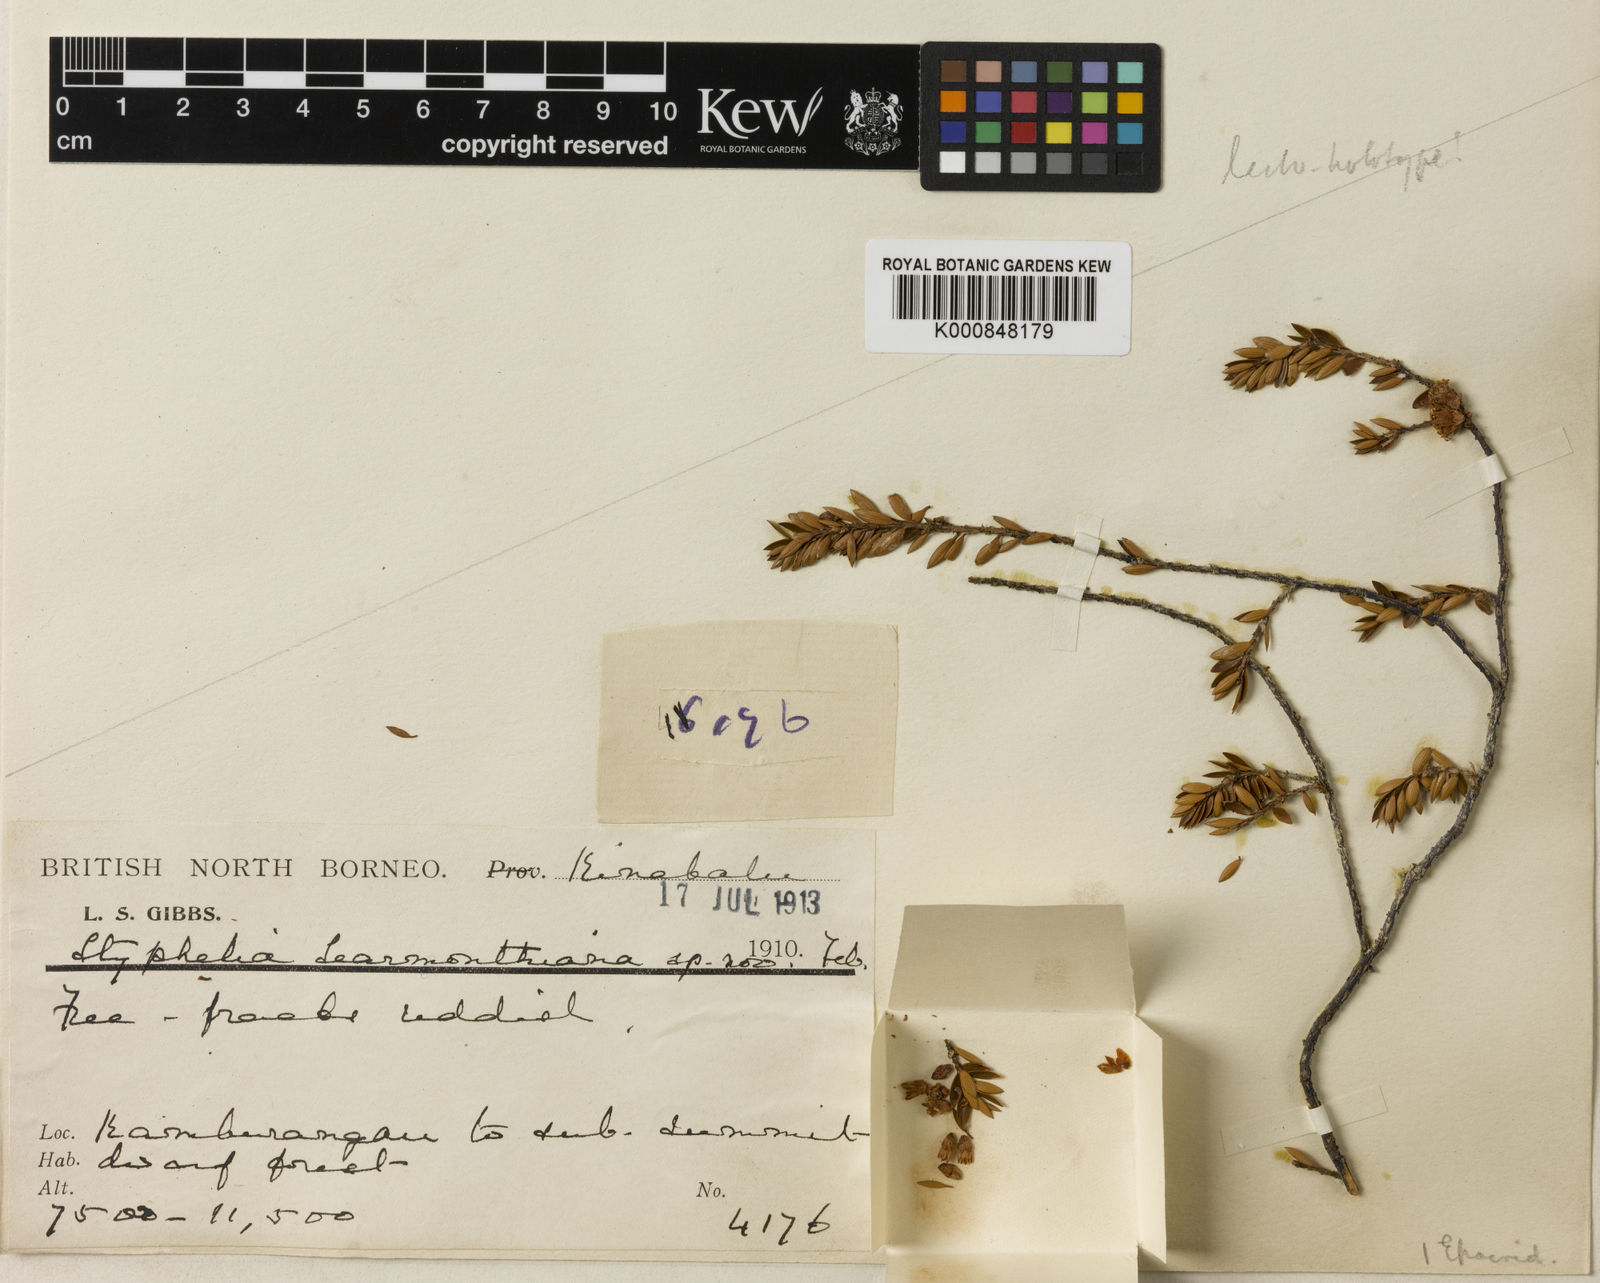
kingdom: Plantae
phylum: Tracheophyta
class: Magnoliopsida
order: Ericales
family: Ericaceae
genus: Trochocarpa
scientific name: Trochocarpa celebica
